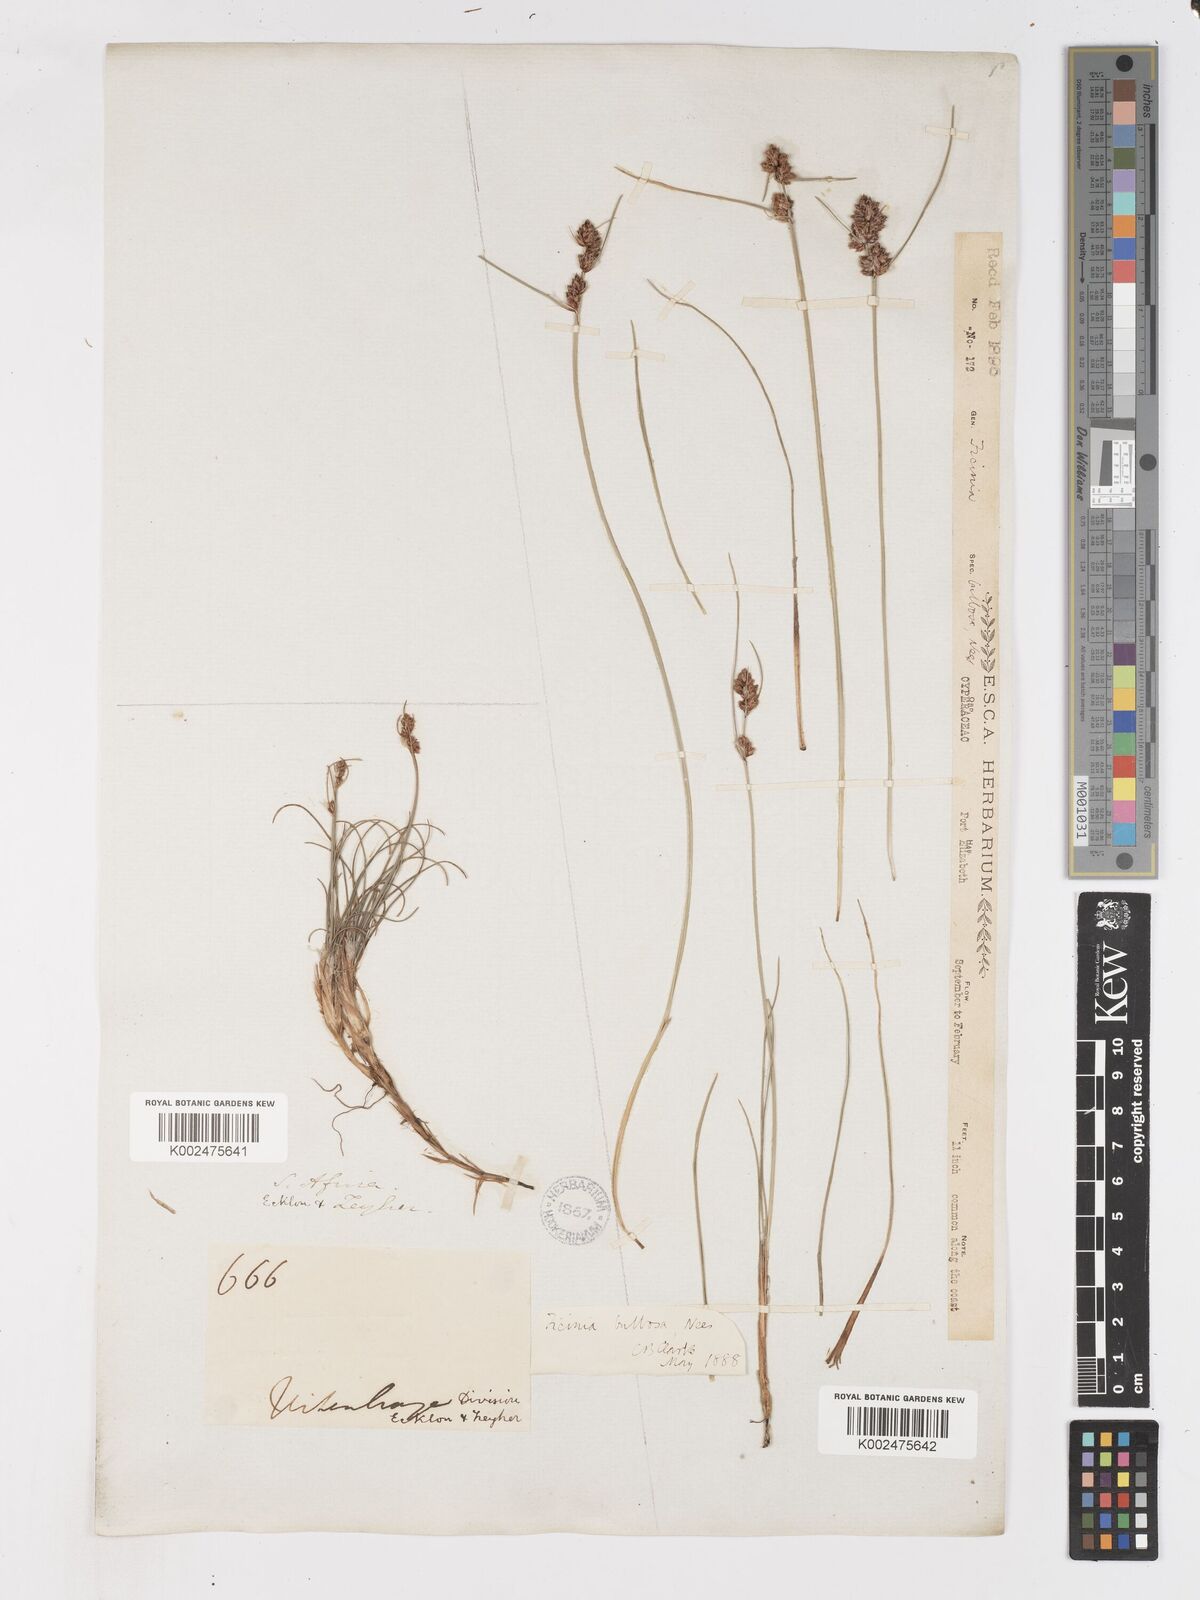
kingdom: Plantae
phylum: Tracheophyta
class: Liliopsida
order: Poales
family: Cyperaceae
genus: Ficinia
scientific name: Ficinia bulbosa
